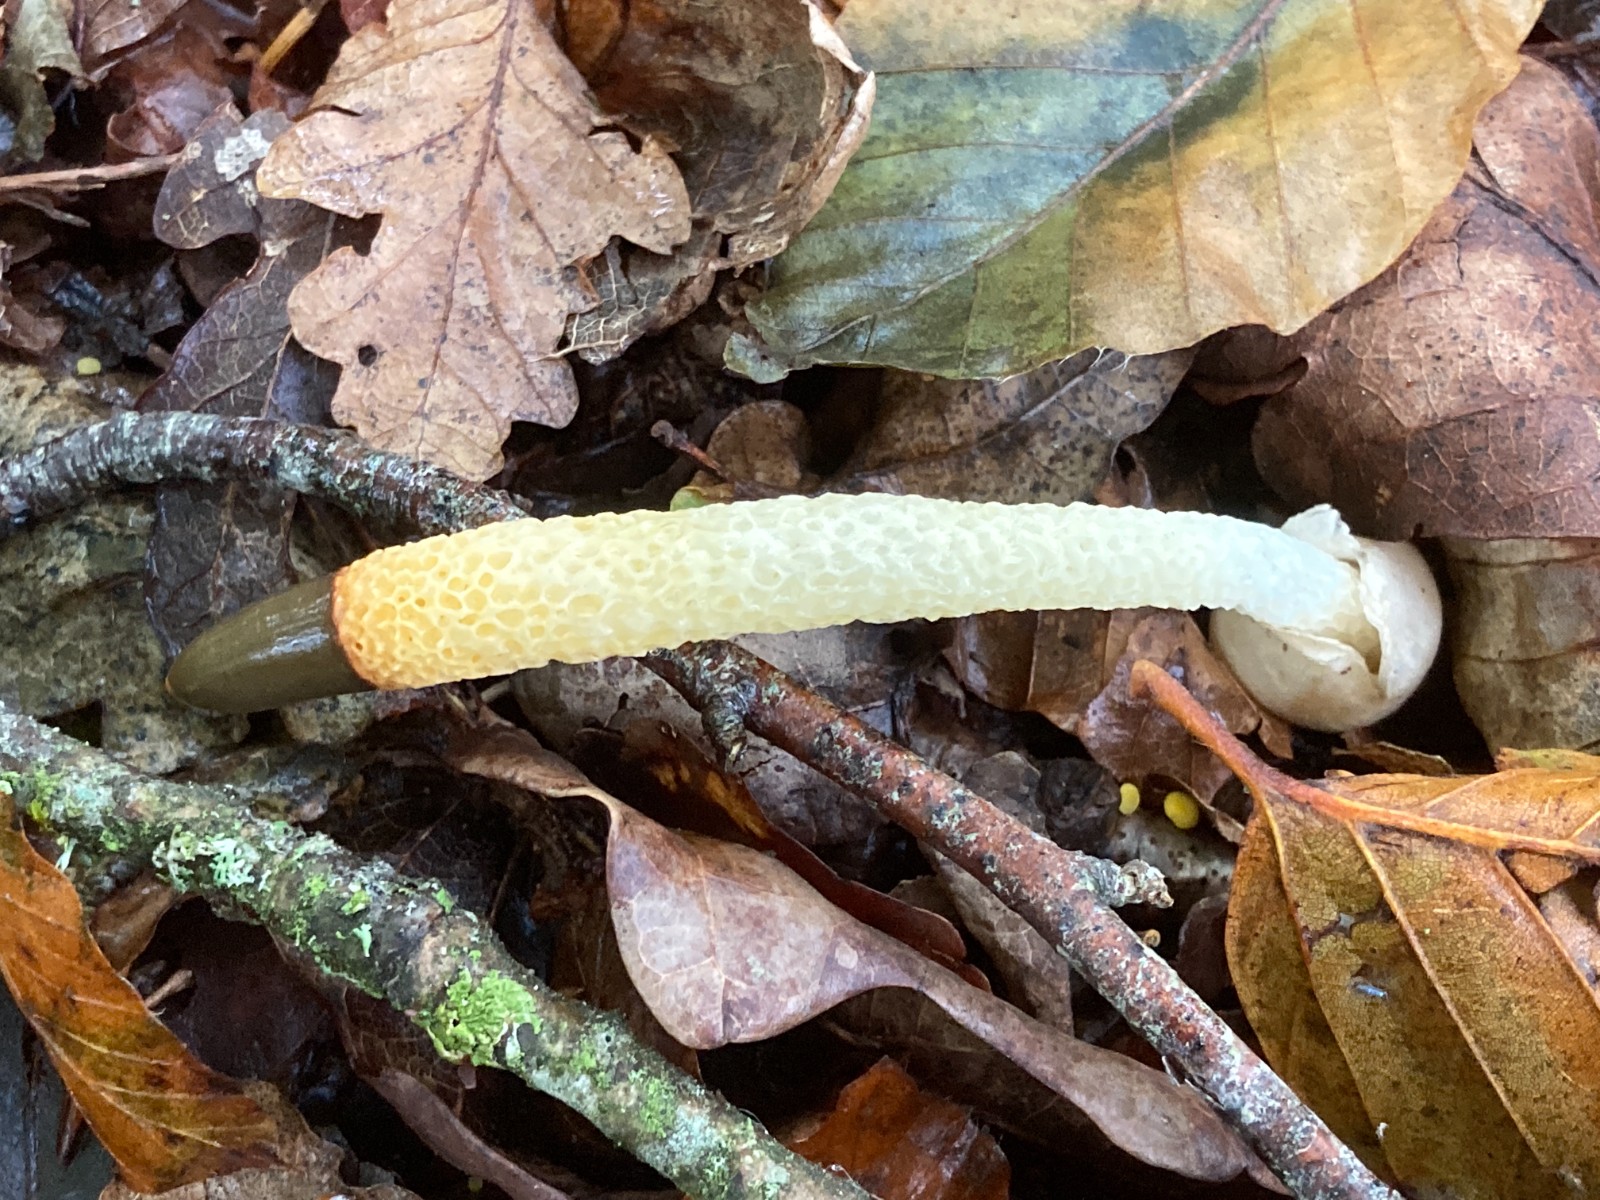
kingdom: Fungi
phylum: Basidiomycota
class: Agaricomycetes
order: Phallales
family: Phallaceae
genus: Mutinus
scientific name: Mutinus caninus
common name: hunde-stinksvamp
